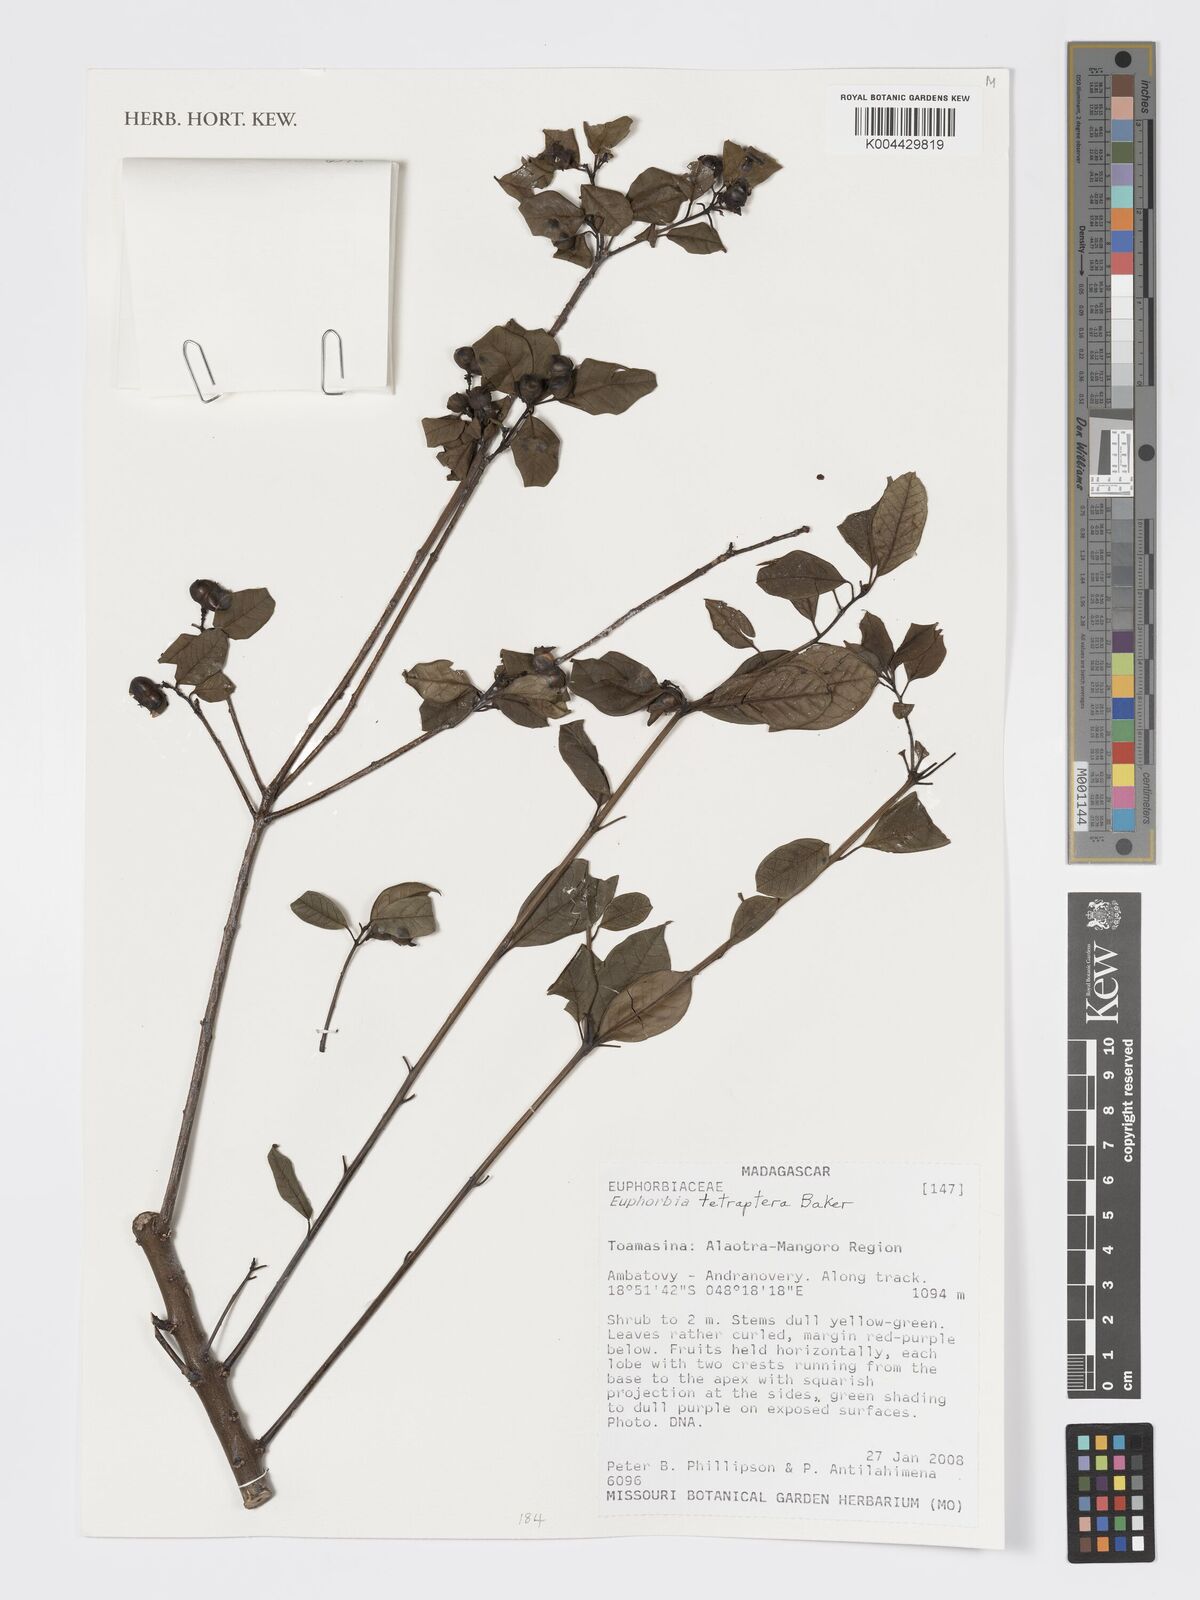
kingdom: Plantae
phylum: Tracheophyta
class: Magnoliopsida
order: Malpighiales
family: Euphorbiaceae
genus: Euphorbia
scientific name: Euphorbia tetraptera
